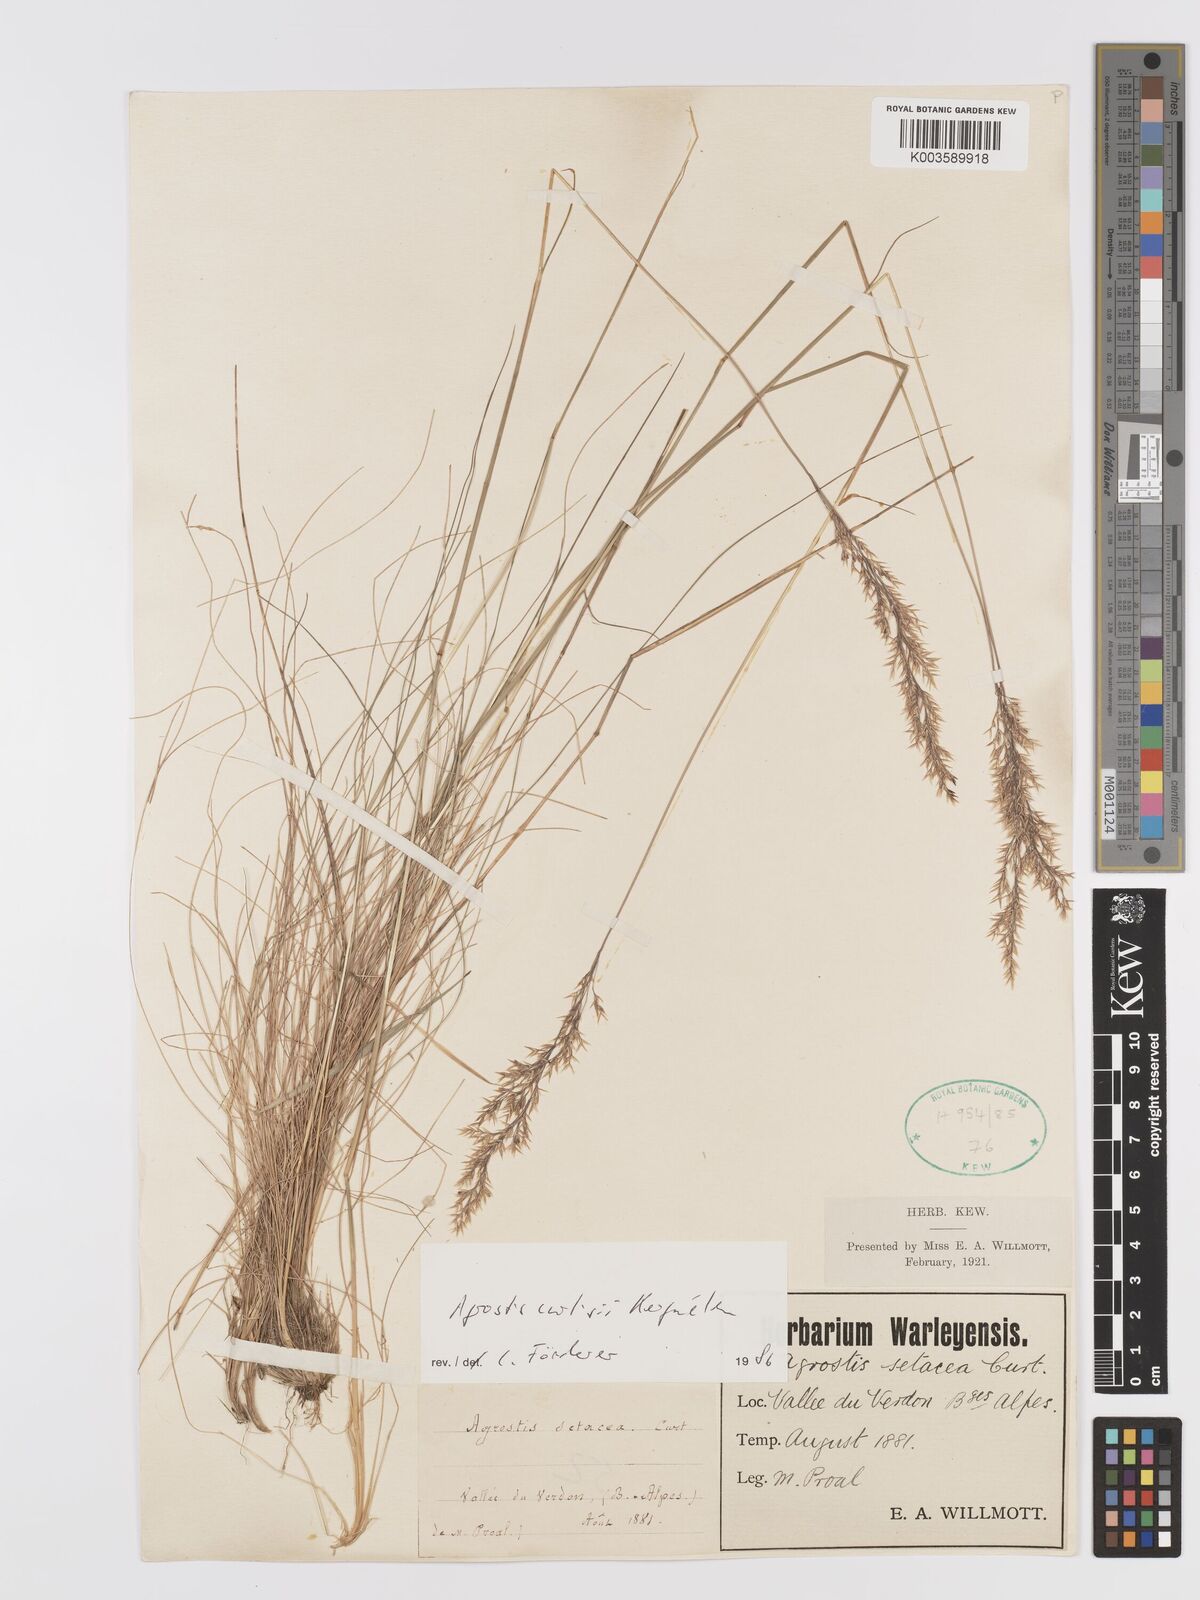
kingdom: Plantae
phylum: Tracheophyta
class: Liliopsida
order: Poales
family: Poaceae
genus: Alpagrostis
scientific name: Alpagrostis setacea
